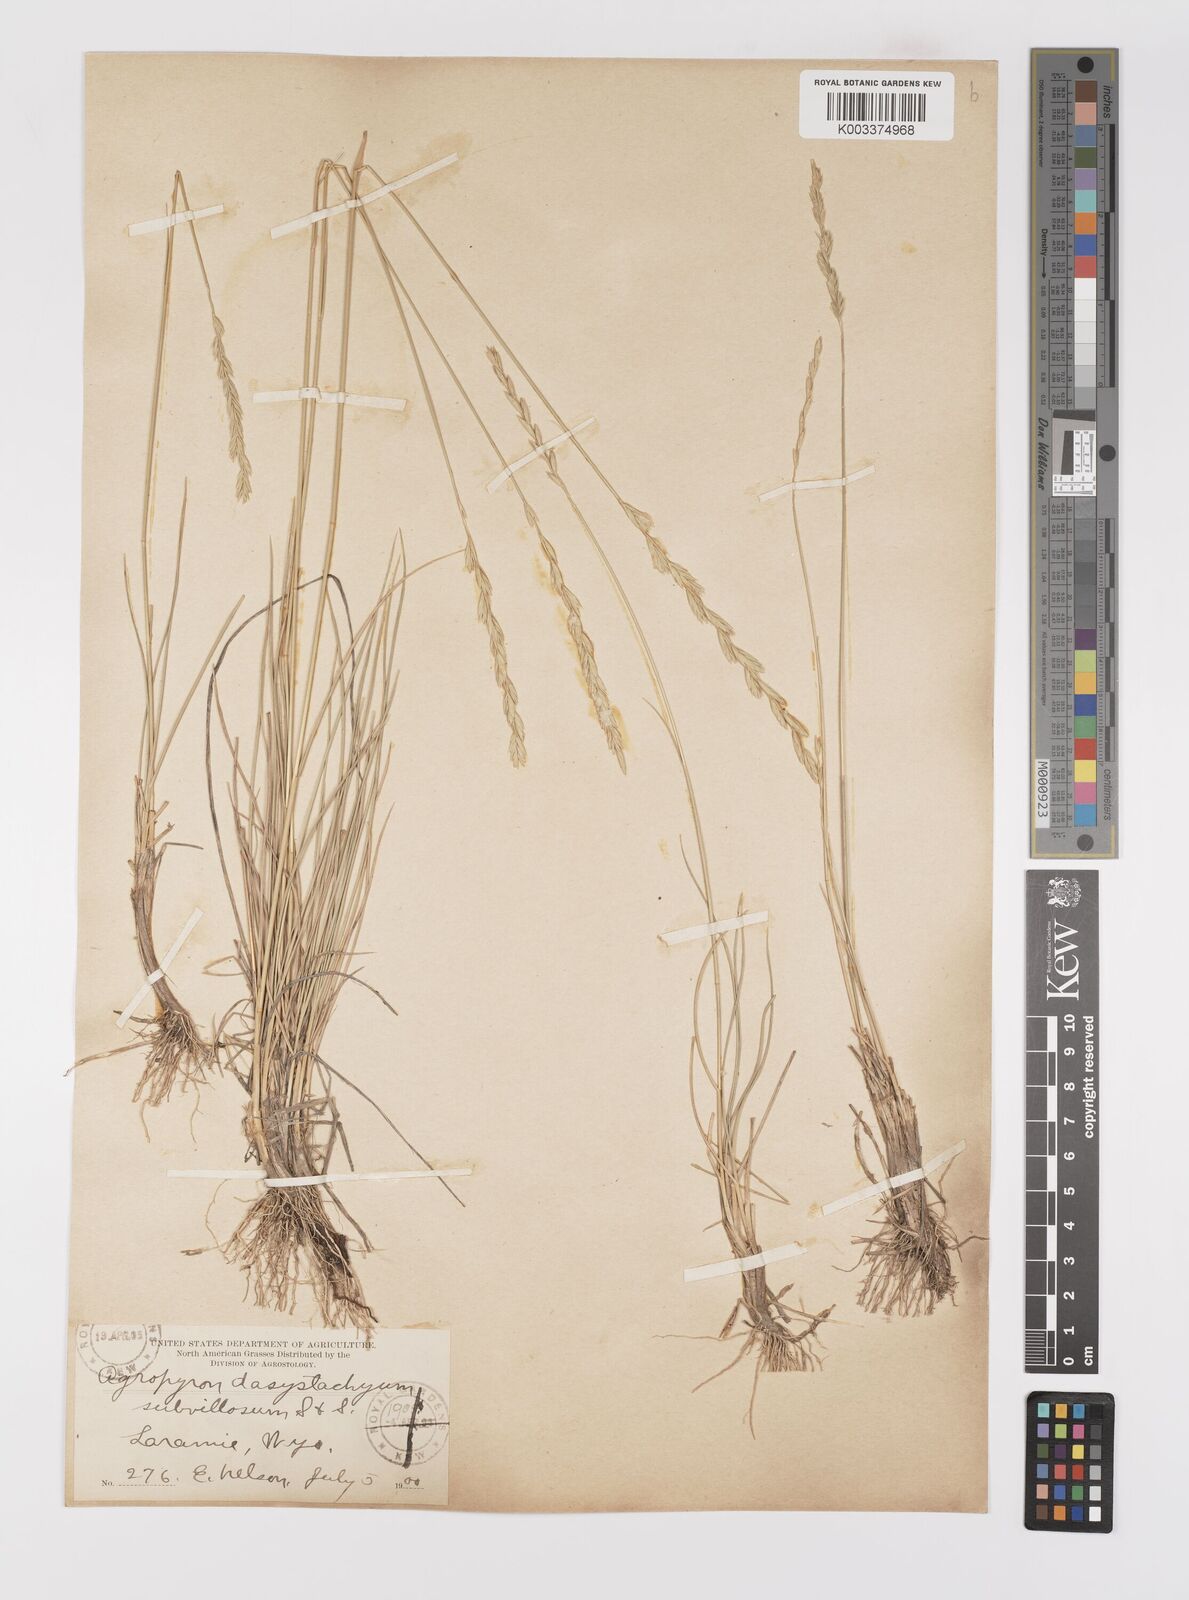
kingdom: Plantae
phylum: Tracheophyta
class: Liliopsida
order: Poales
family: Poaceae
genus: Elymus
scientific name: Elymus lanceolatus
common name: Thick-spike wheatgrass
